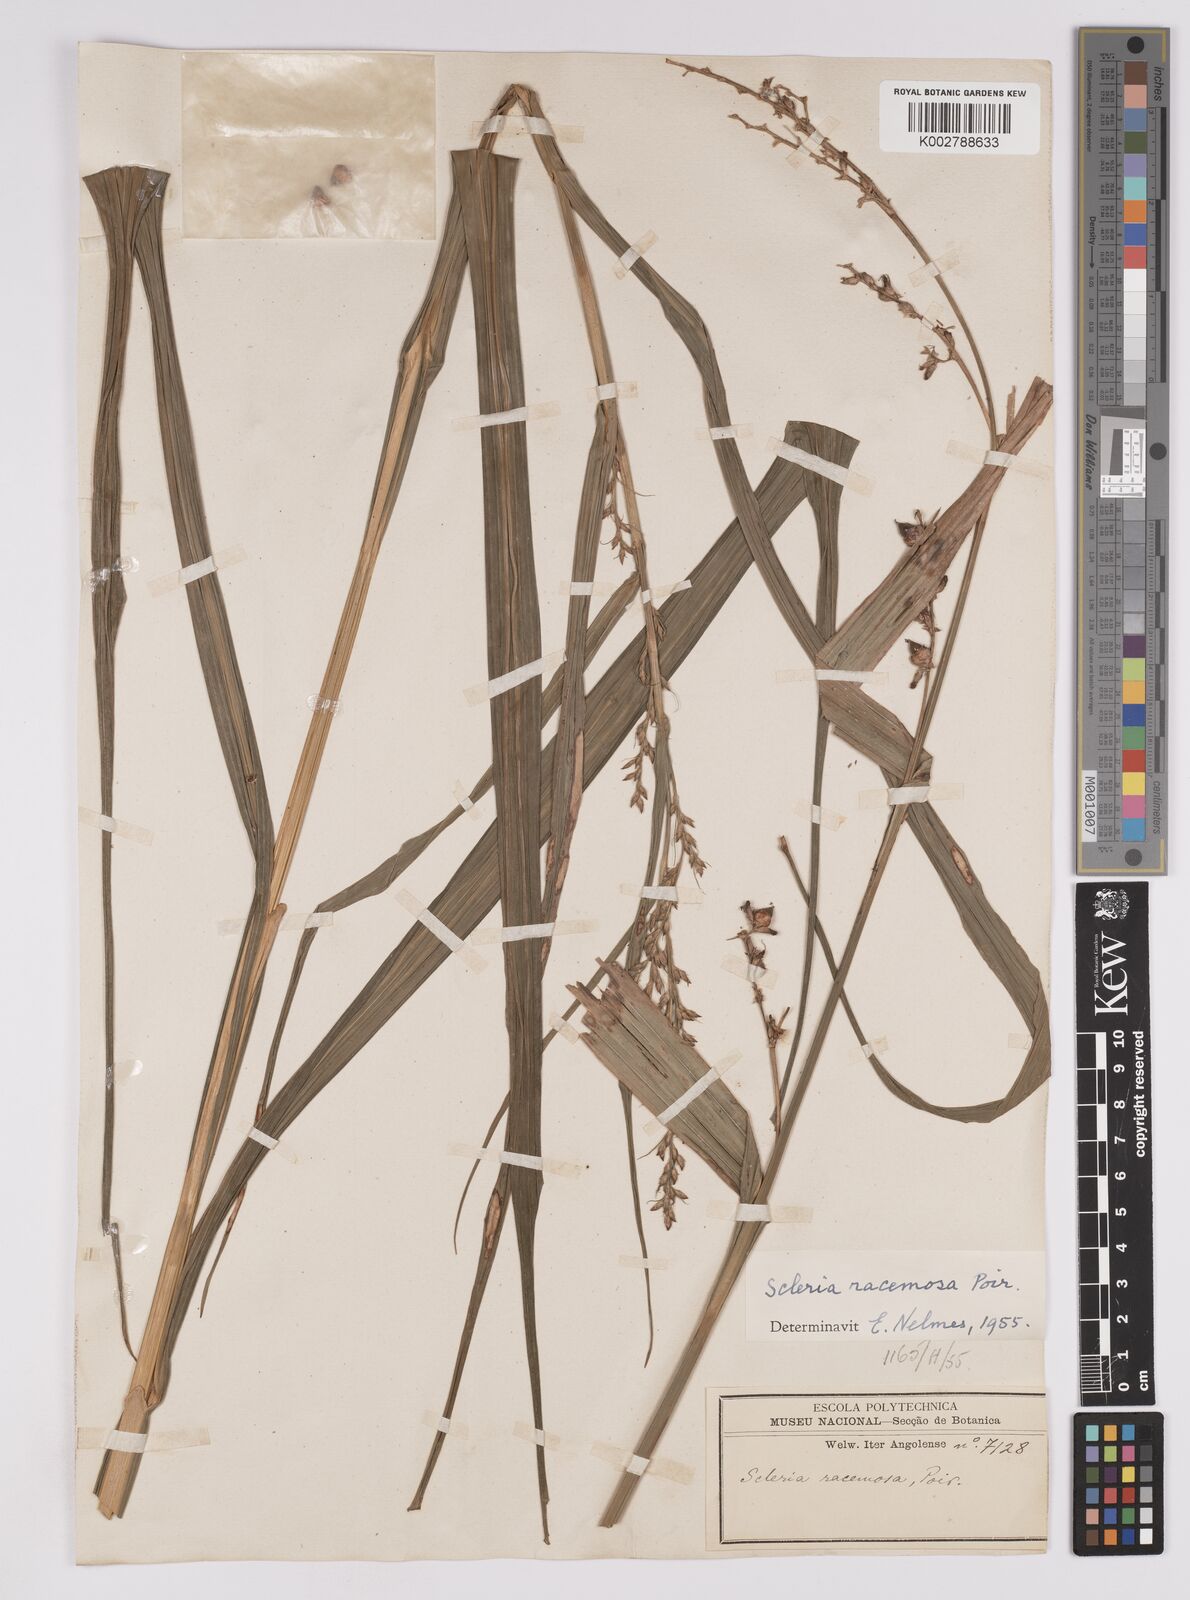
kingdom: Plantae
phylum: Tracheophyta
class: Liliopsida
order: Poales
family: Cyperaceae
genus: Scleria
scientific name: Scleria racemosa
